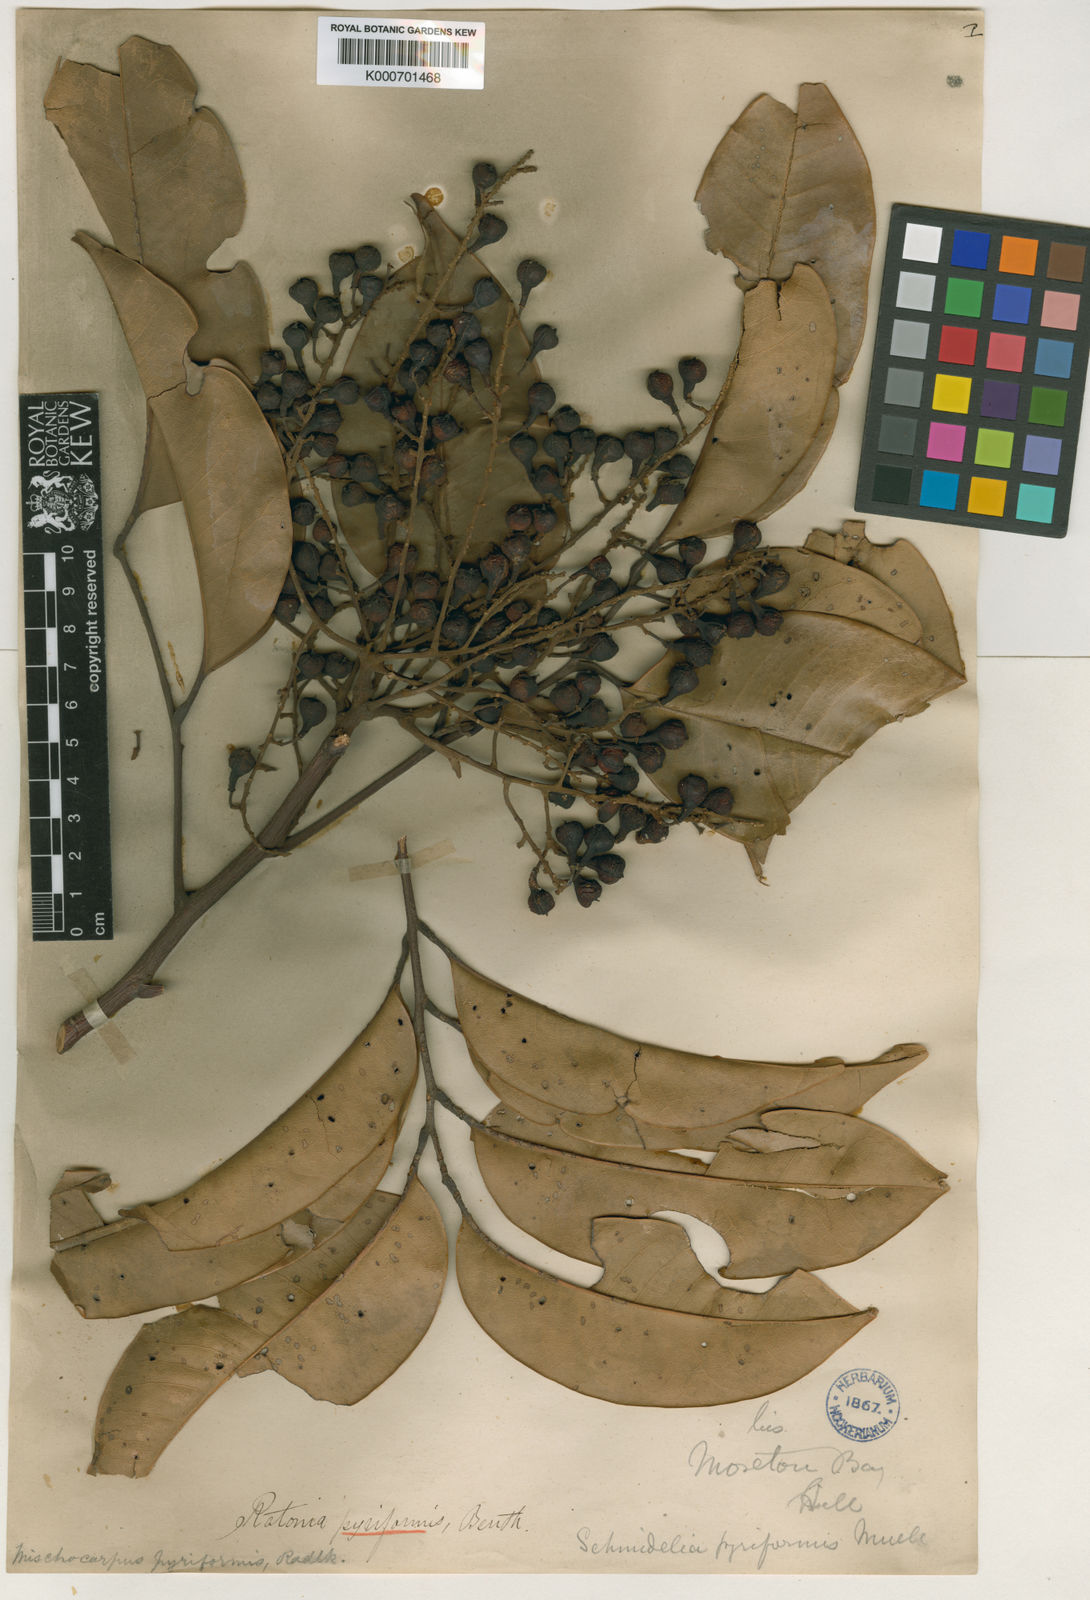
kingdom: Plantae
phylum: Tracheophyta
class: Magnoliopsida
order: Sapindales
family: Sapindaceae
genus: Mischocarpus
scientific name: Mischocarpus pyriformis
